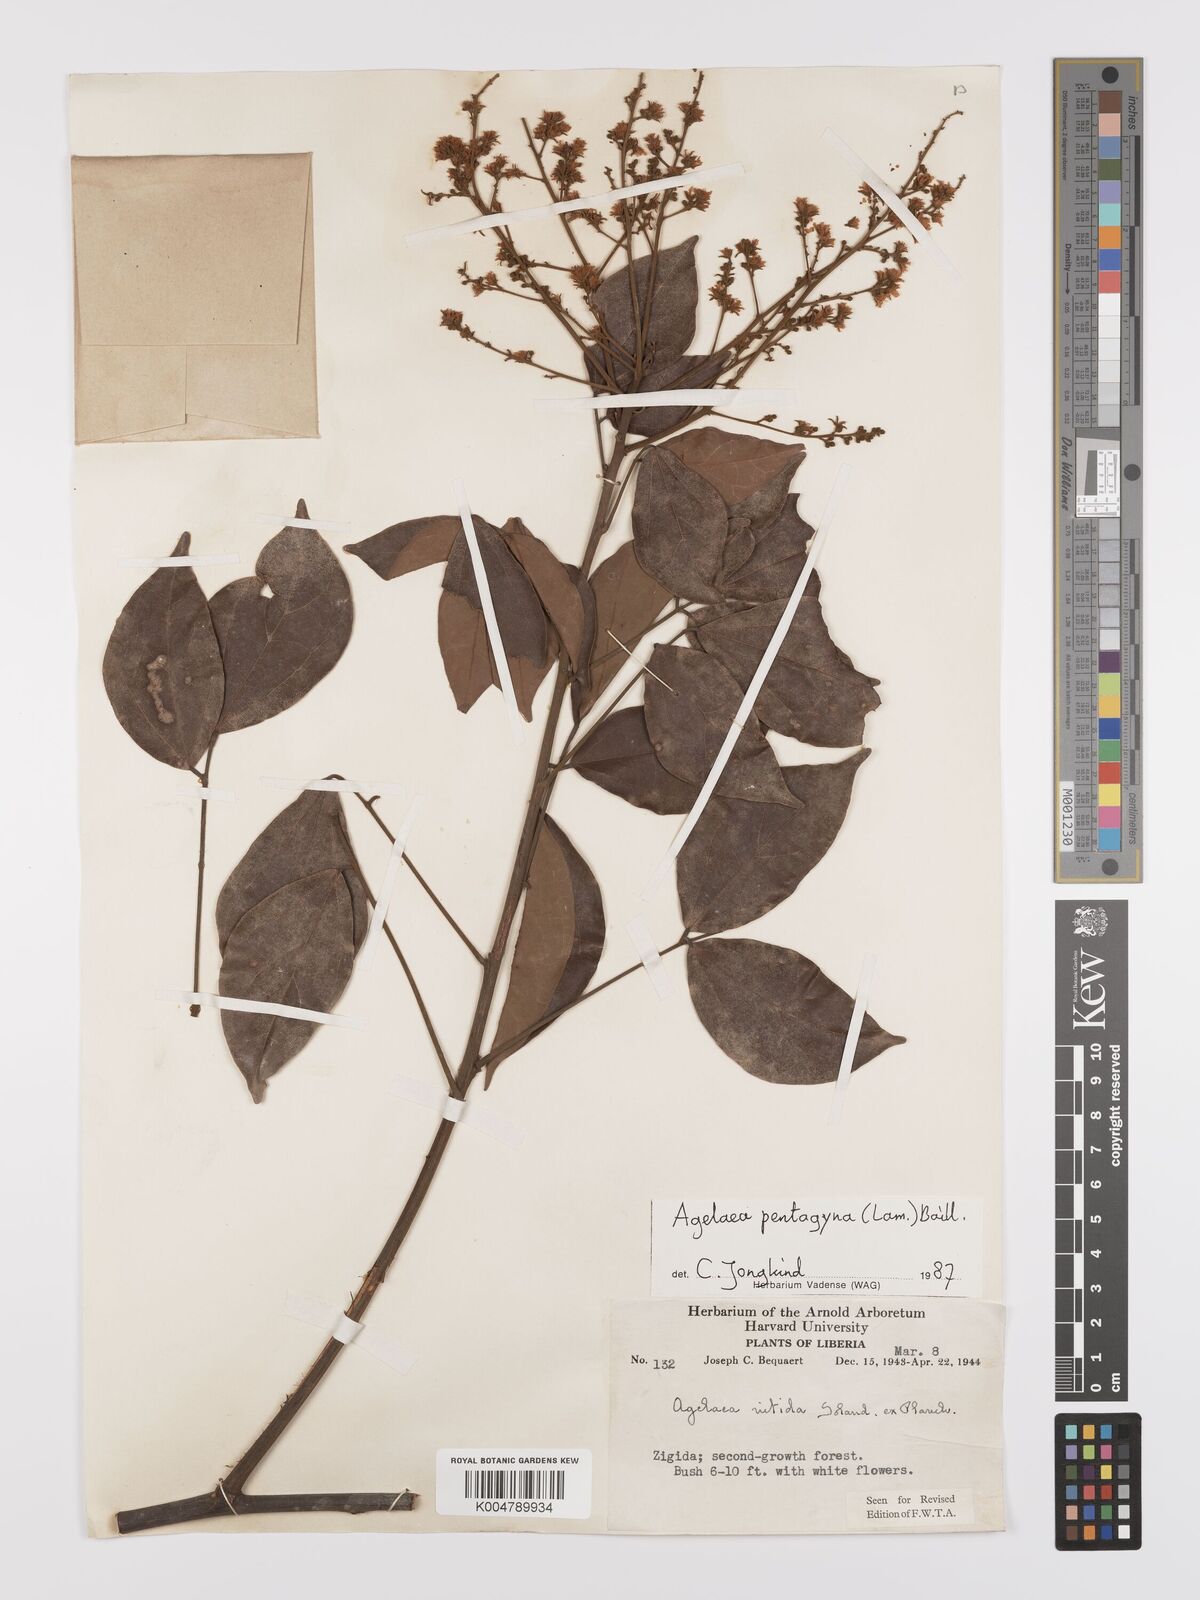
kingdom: Plantae
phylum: Tracheophyta
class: Magnoliopsida
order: Oxalidales
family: Connaraceae
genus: Agelaea
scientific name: Agelaea pentagyna
